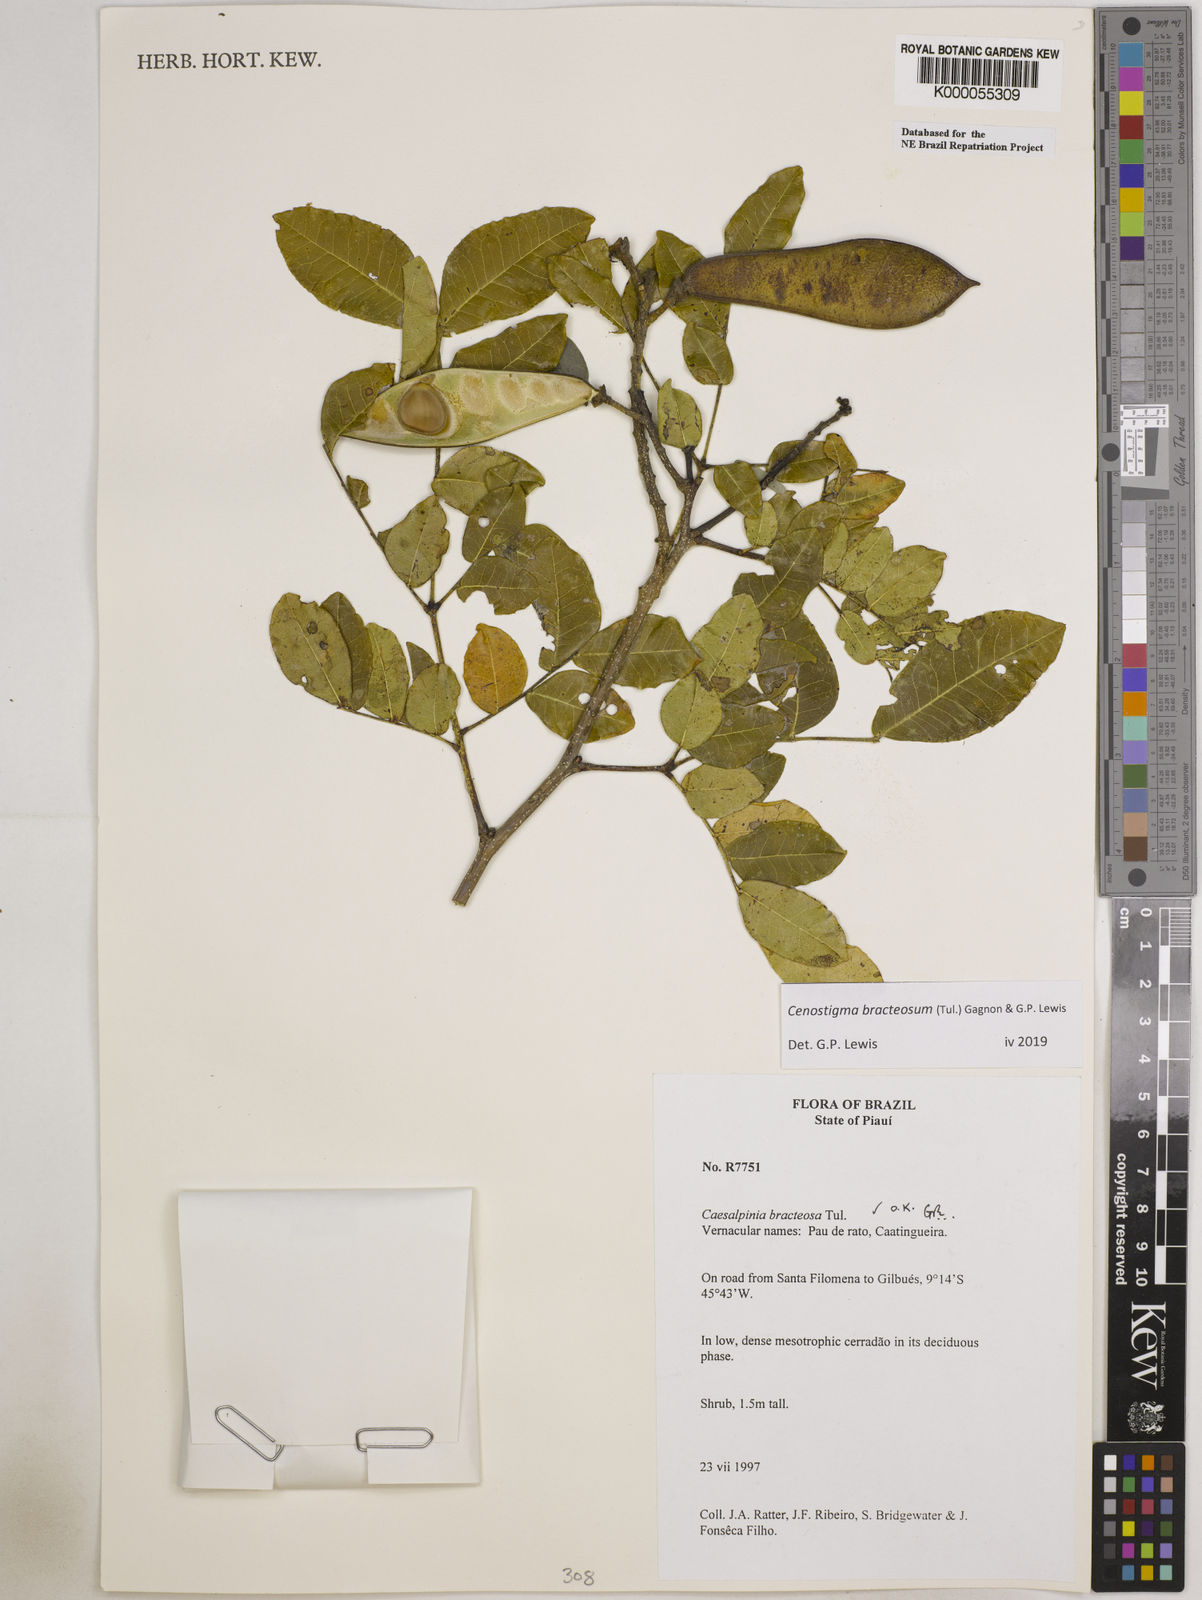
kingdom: Plantae
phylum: Tracheophyta
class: Magnoliopsida
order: Fabales
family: Fabaceae
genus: Cenostigma
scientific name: Cenostigma bracteosum
